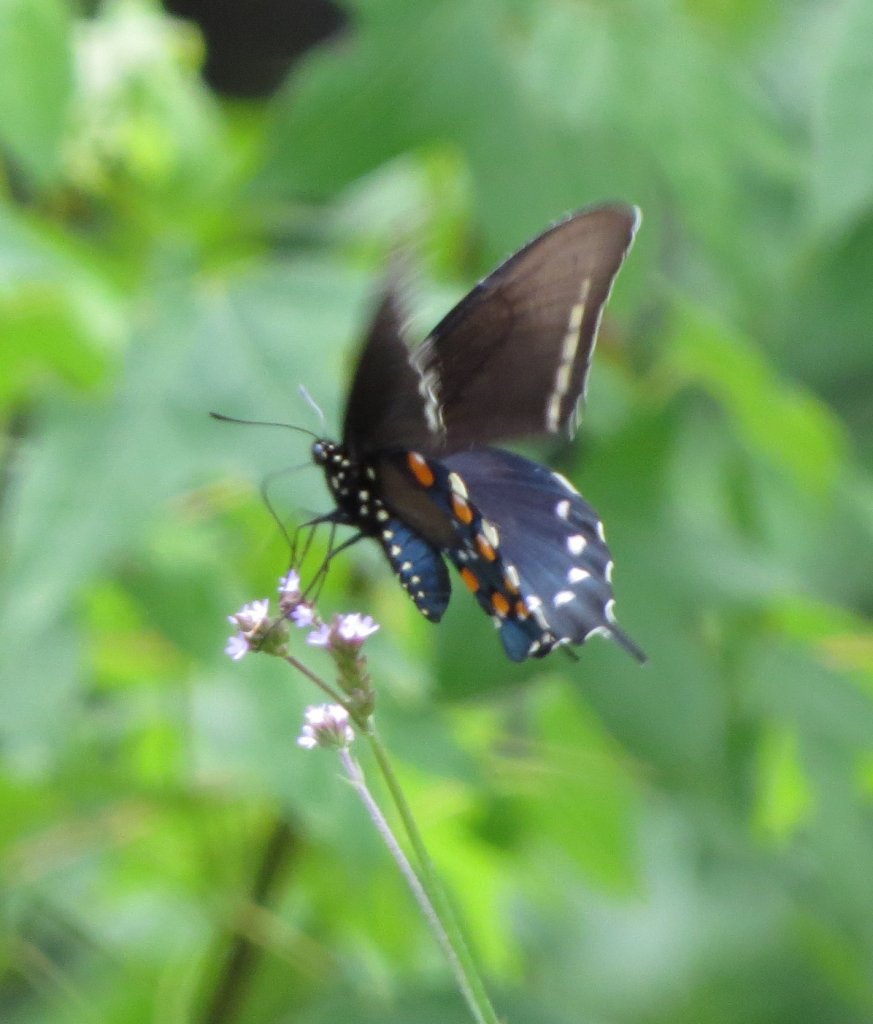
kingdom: Animalia
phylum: Arthropoda
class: Insecta
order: Lepidoptera
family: Papilionidae
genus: Battus
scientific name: Battus philenor
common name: Pipevine Swallowtail
